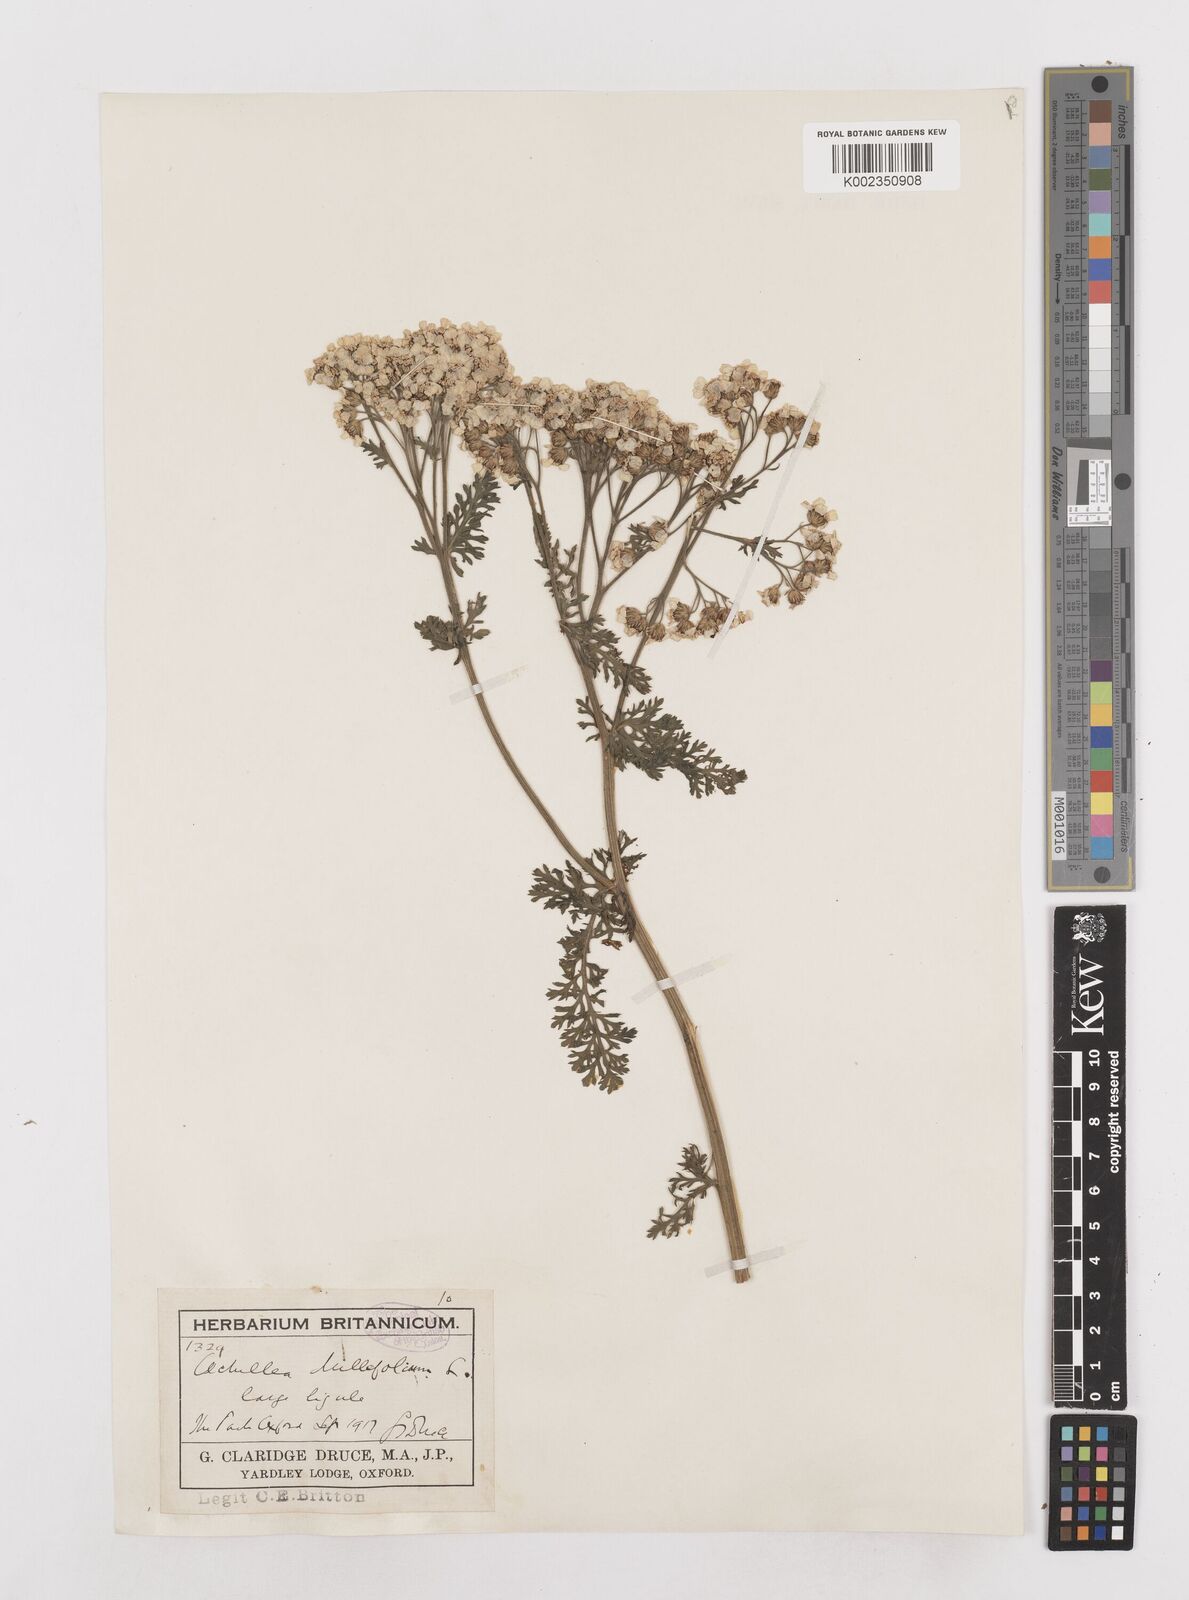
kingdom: Plantae
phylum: Tracheophyta
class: Magnoliopsida
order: Asterales
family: Asteraceae
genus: Achillea
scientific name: Achillea millefolium
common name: Yarrow
